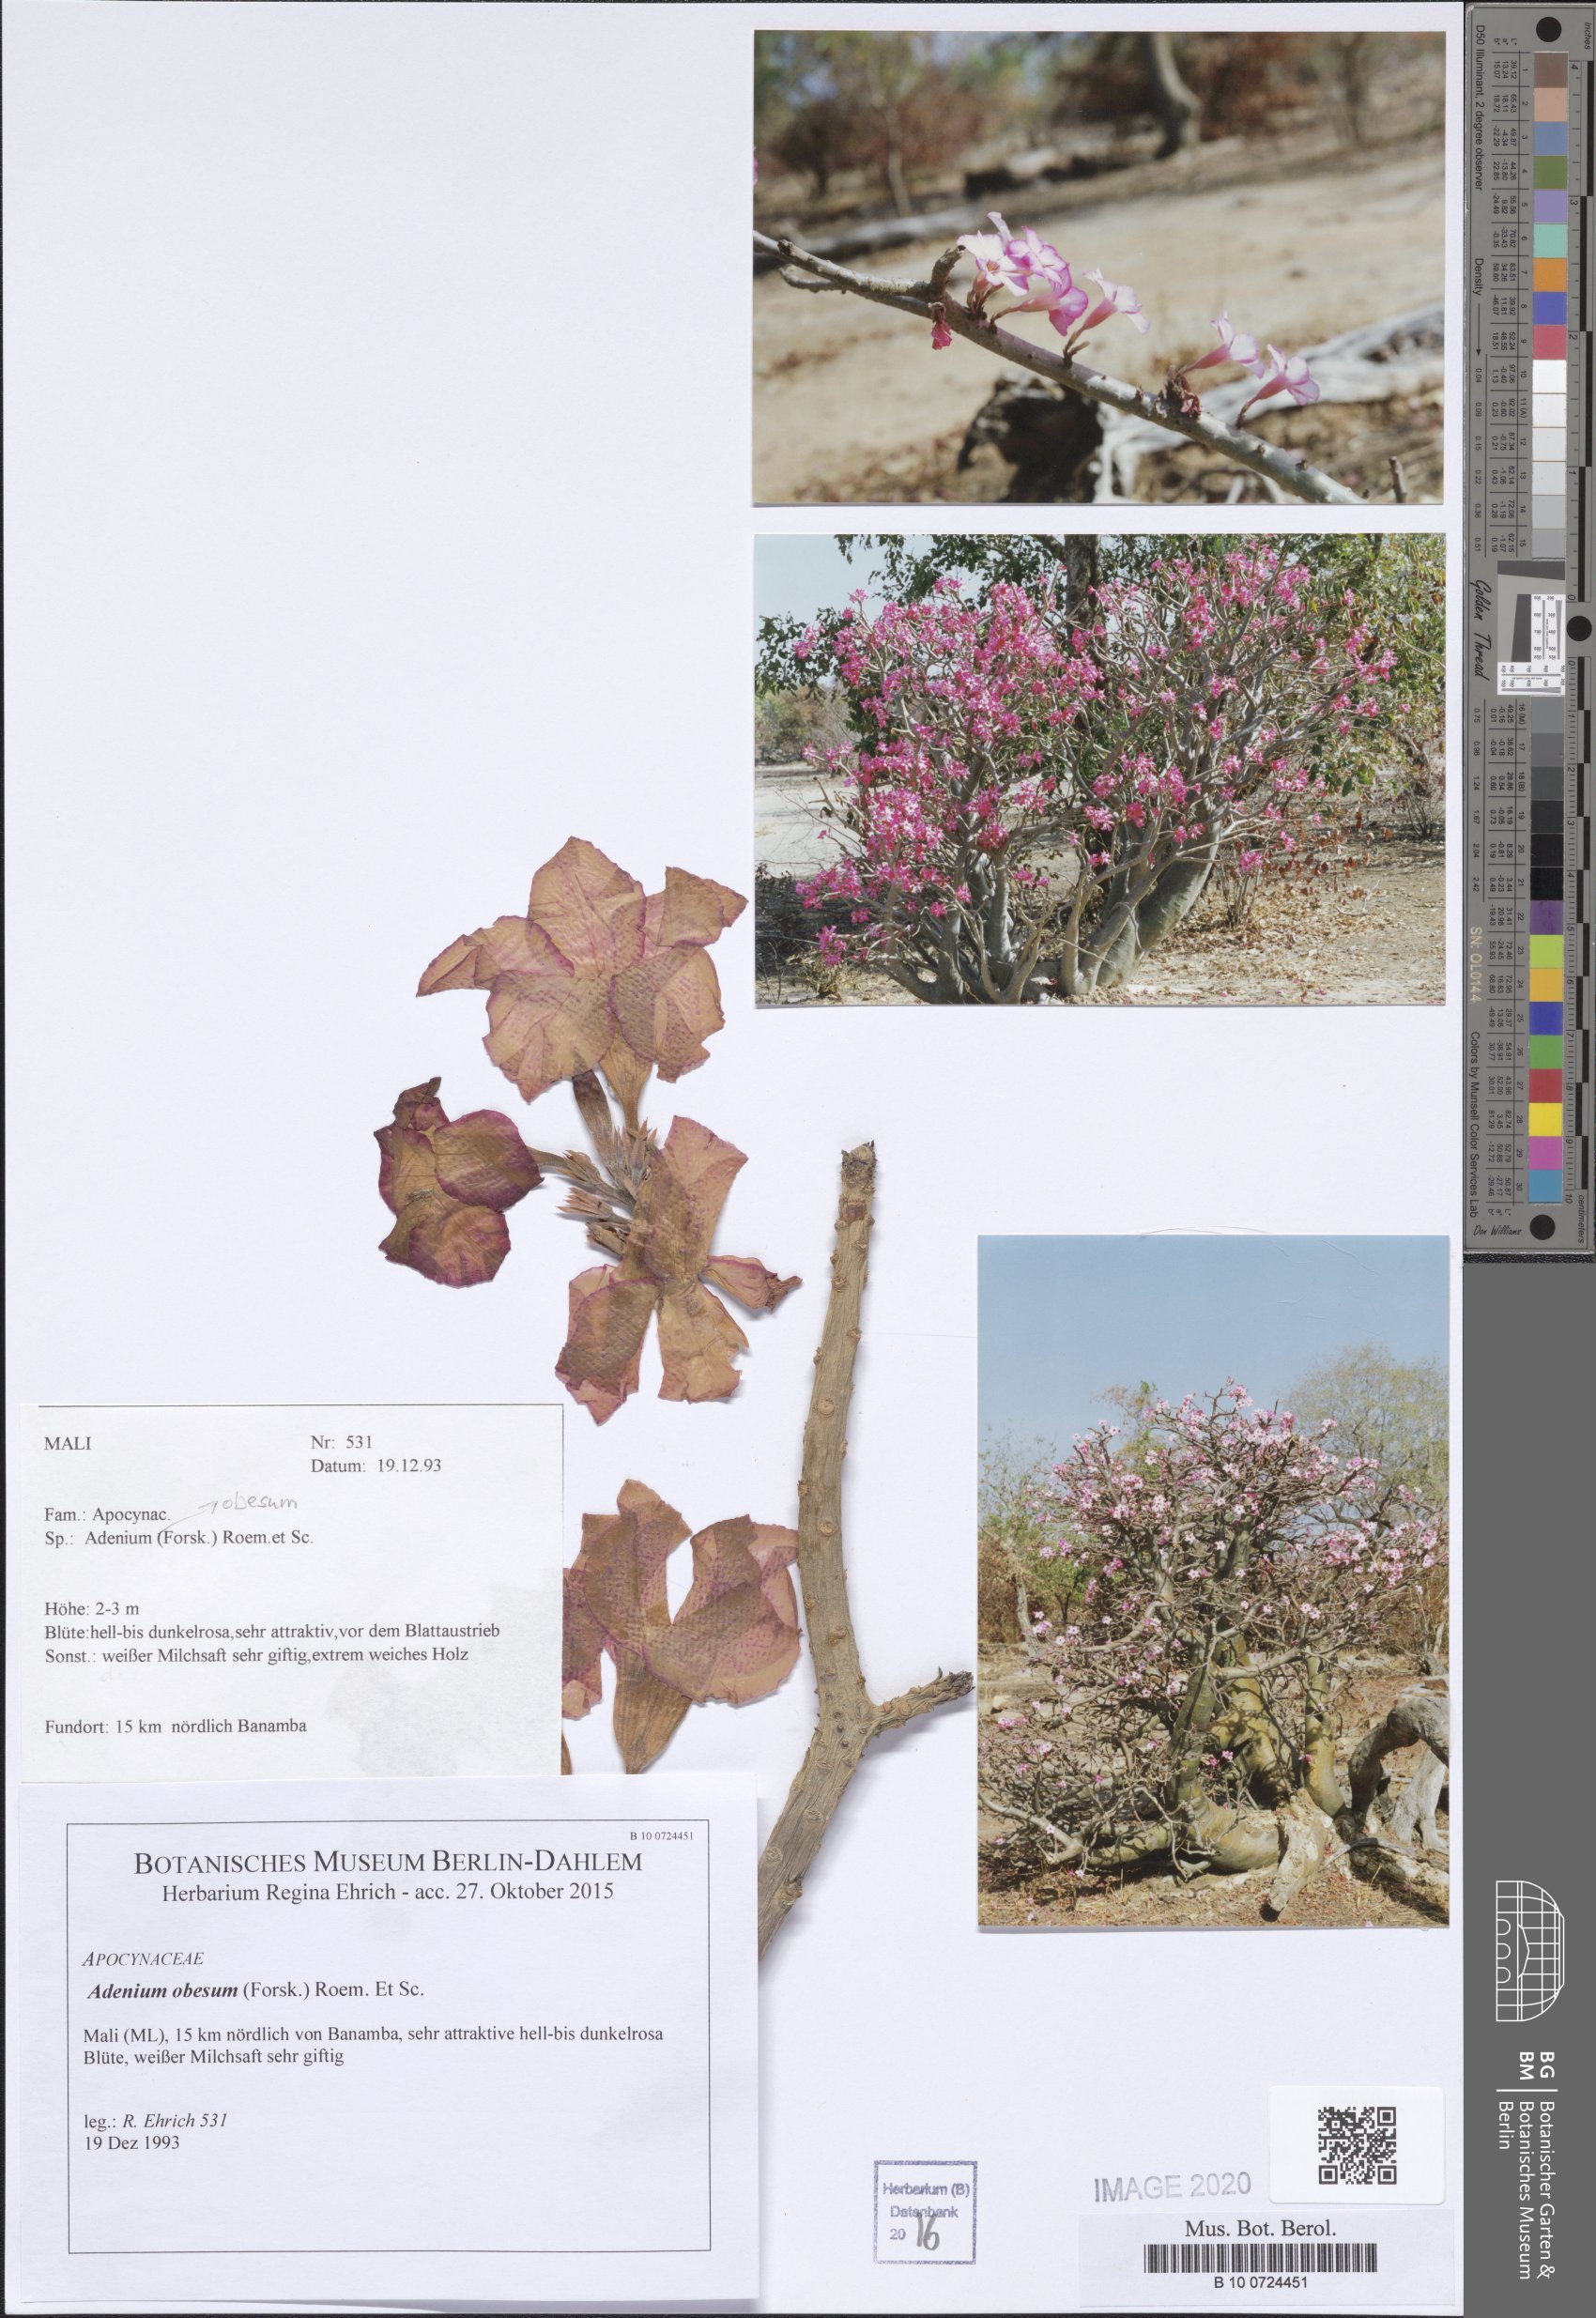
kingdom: Plantae
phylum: Tracheophyta
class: Magnoliopsida
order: Gentianales
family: Apocynaceae
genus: Adenium
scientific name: Adenium obesum
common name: Desert-rose
